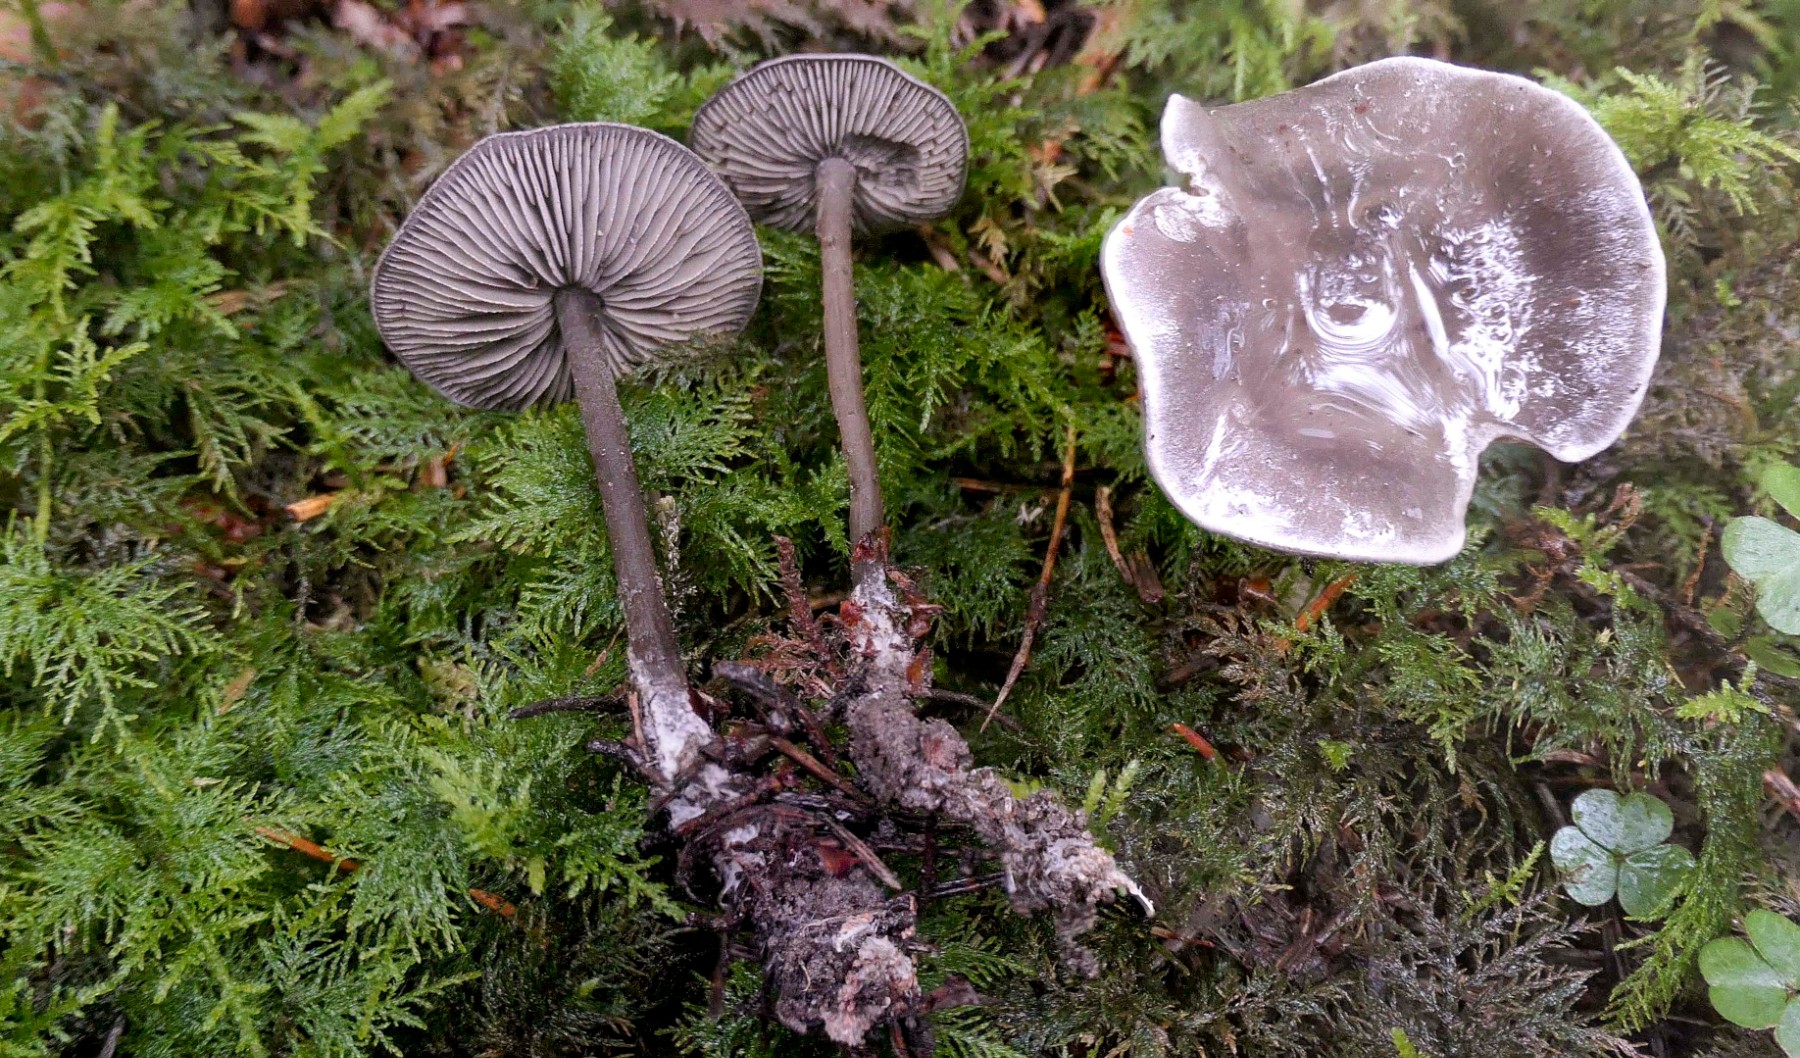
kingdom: Fungi
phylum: Basidiomycota
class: Agaricomycetes
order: Agaricales
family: Lyophyllaceae
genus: Tephrocybe
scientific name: Tephrocybe rancida
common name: mel-gråblad
